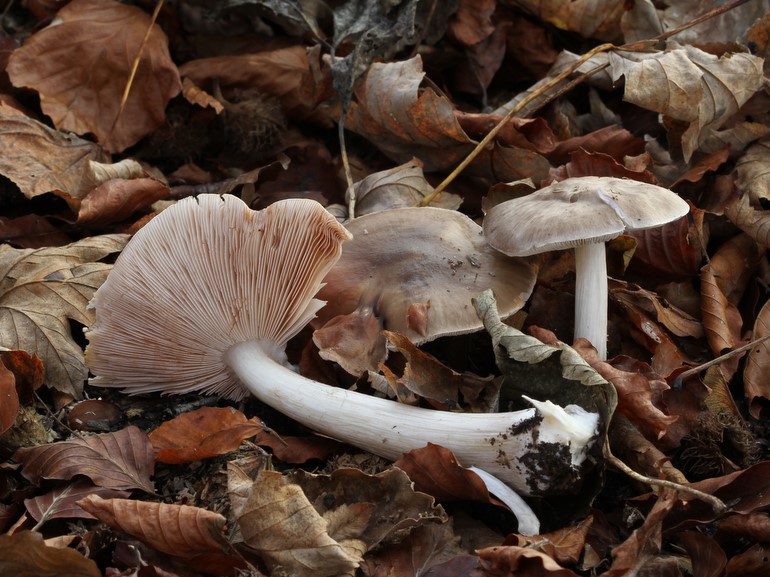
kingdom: Fungi
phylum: Basidiomycota
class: Agaricomycetes
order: Agaricales
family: Pluteaceae
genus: Pluteus
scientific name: Pluteus cervinus
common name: sodfarvet skærmhat
